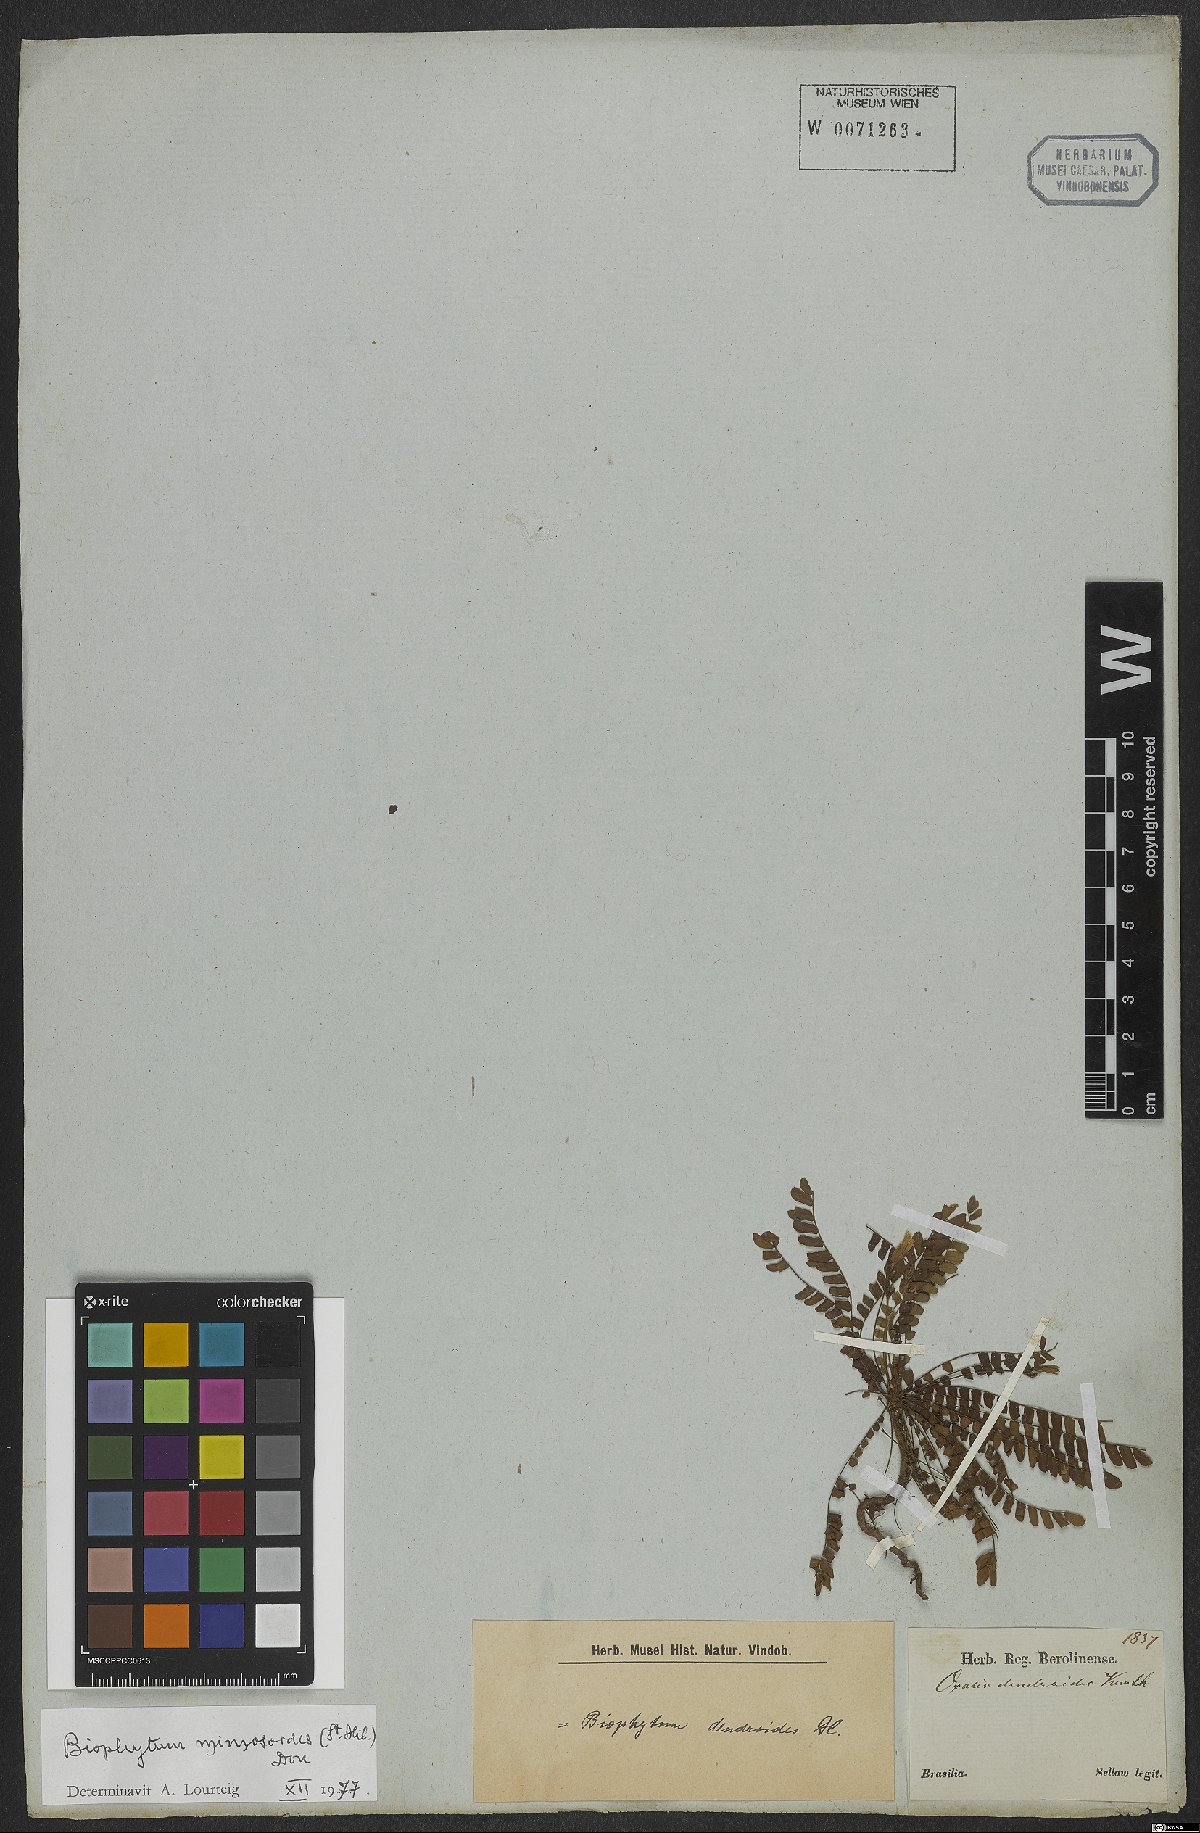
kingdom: Plantae
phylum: Tracheophyta
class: Magnoliopsida
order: Oxalidales
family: Oxalidaceae
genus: Biophytum
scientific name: Biophytum mimosoides
